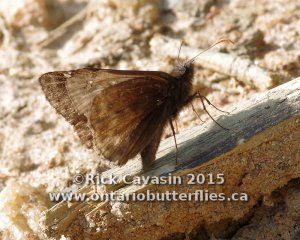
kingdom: Animalia
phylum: Arthropoda
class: Insecta
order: Lepidoptera
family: Hesperiidae
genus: Gesta
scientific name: Gesta
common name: Juvenal's Duskywing
